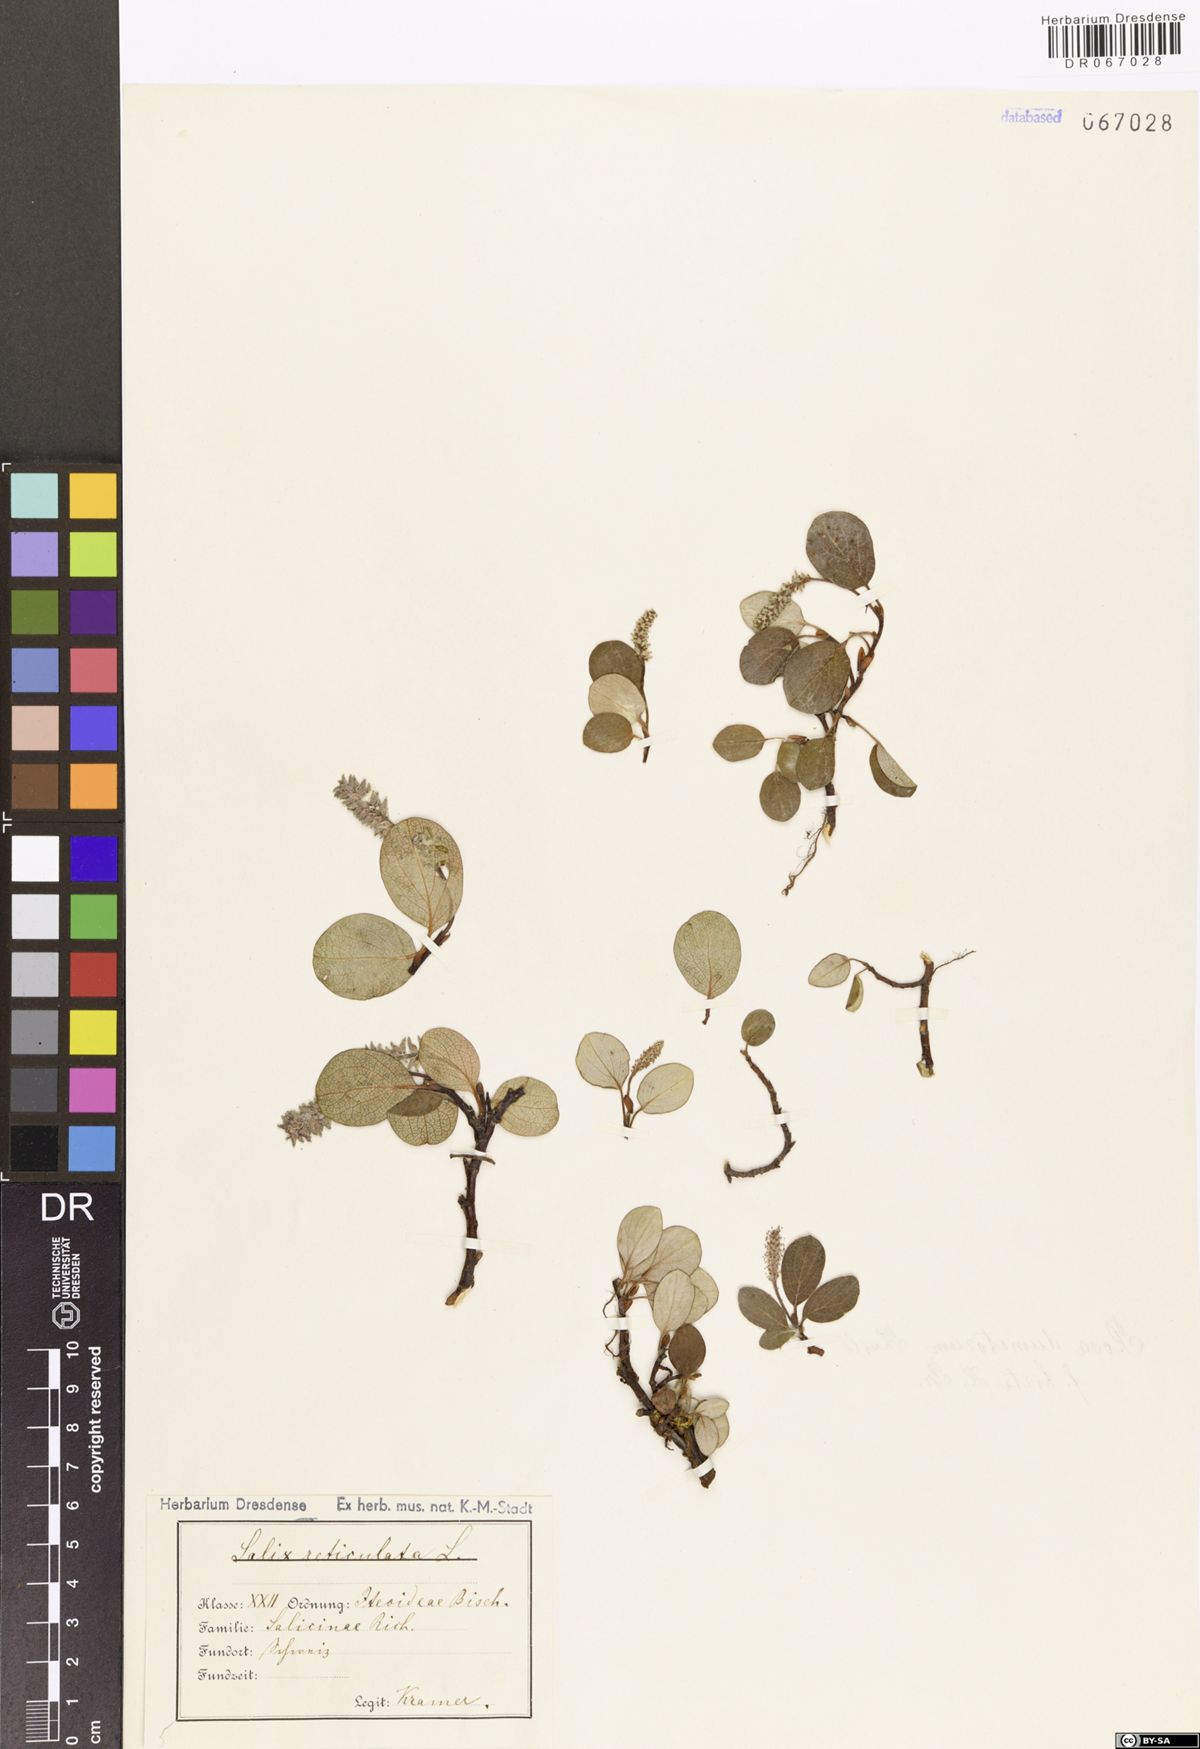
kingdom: Plantae
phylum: Tracheophyta
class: Magnoliopsida
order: Malpighiales
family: Salicaceae
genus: Salix
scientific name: Salix reticulata
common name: Net-leaved willow
